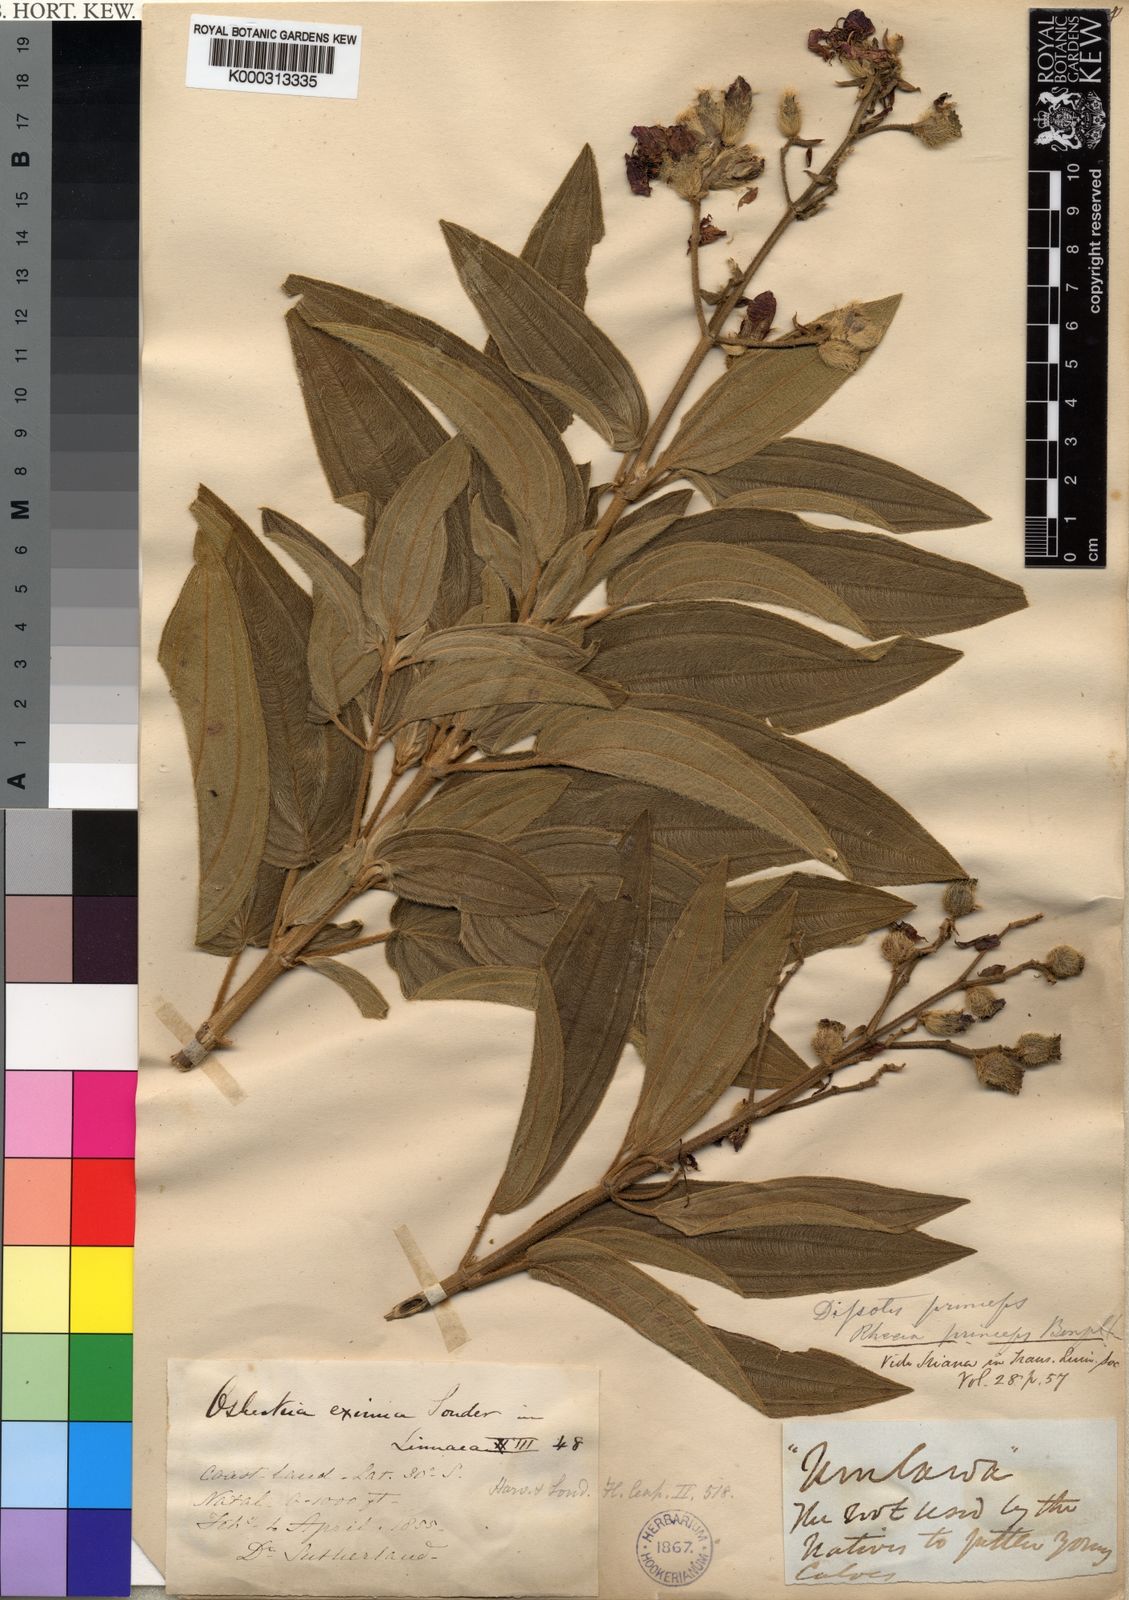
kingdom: Plantae
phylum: Tracheophyta
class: Magnoliopsida
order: Myrtales
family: Melastomataceae
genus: Rosettea
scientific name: Rosettea princeps
